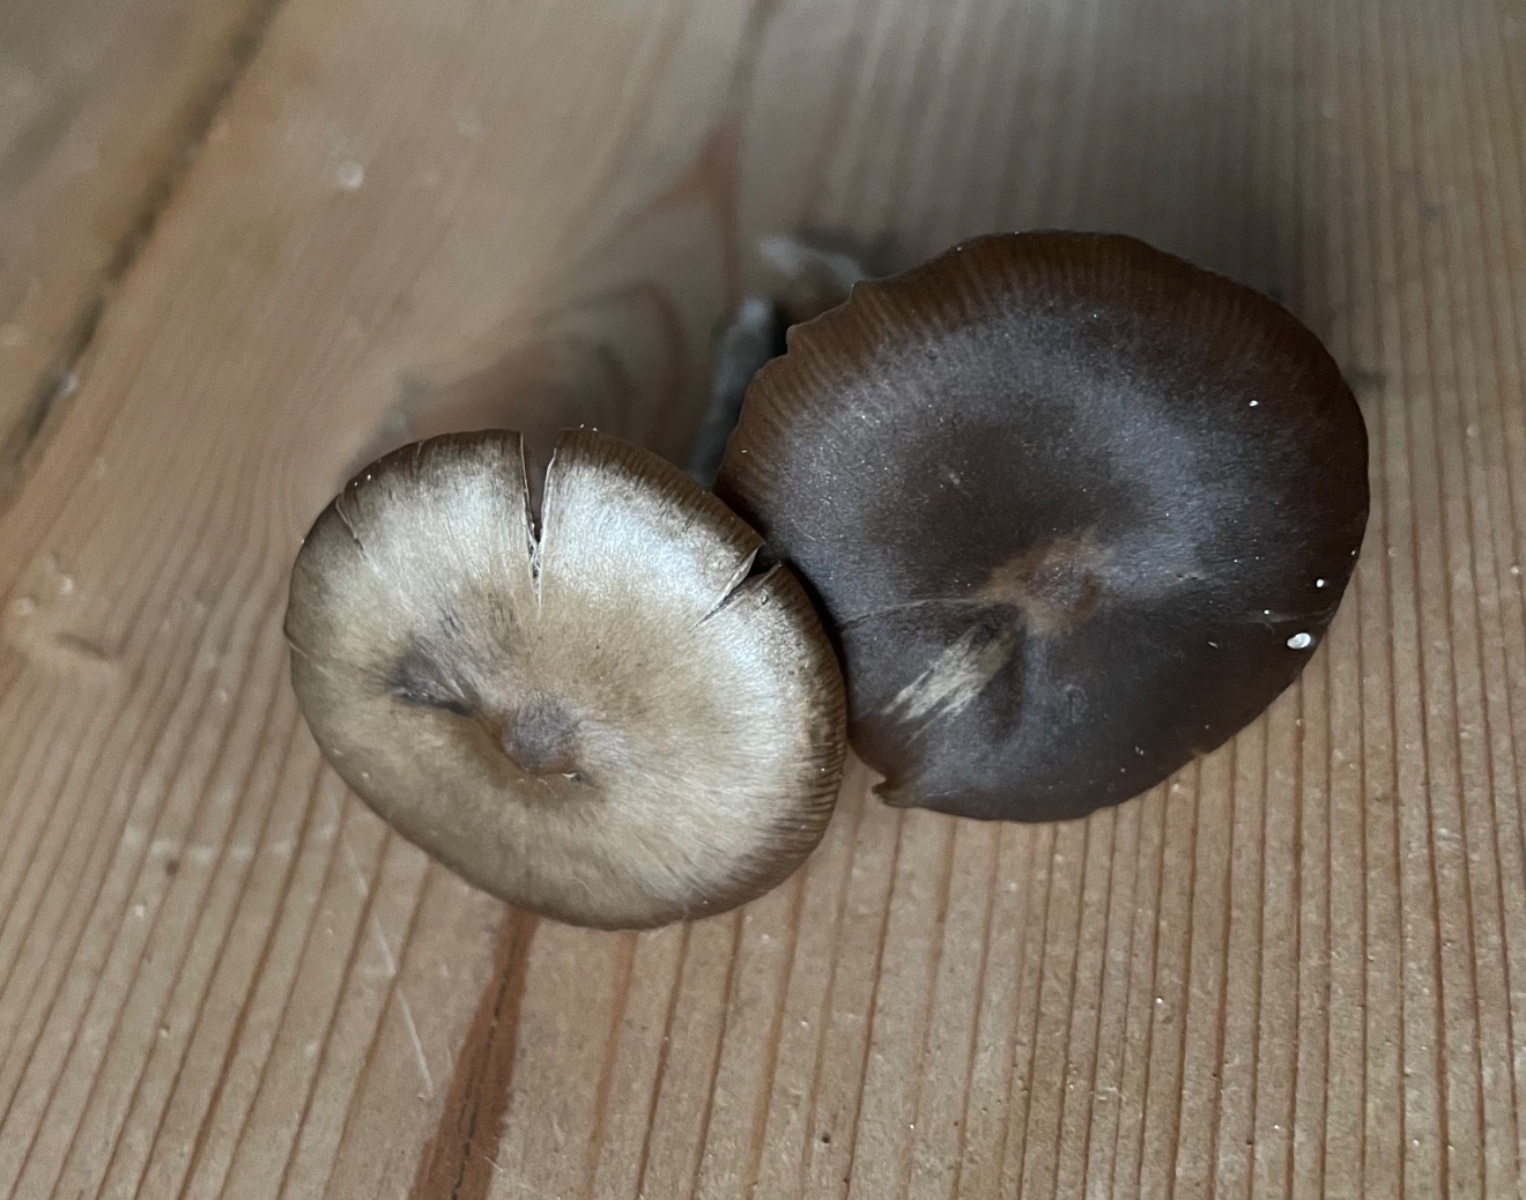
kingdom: Fungi
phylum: Basidiomycota
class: Agaricomycetes
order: Agaricales
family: Entolomataceae
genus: Entoloma
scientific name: Entoloma sericeum
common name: silkeglinsende rødblad
